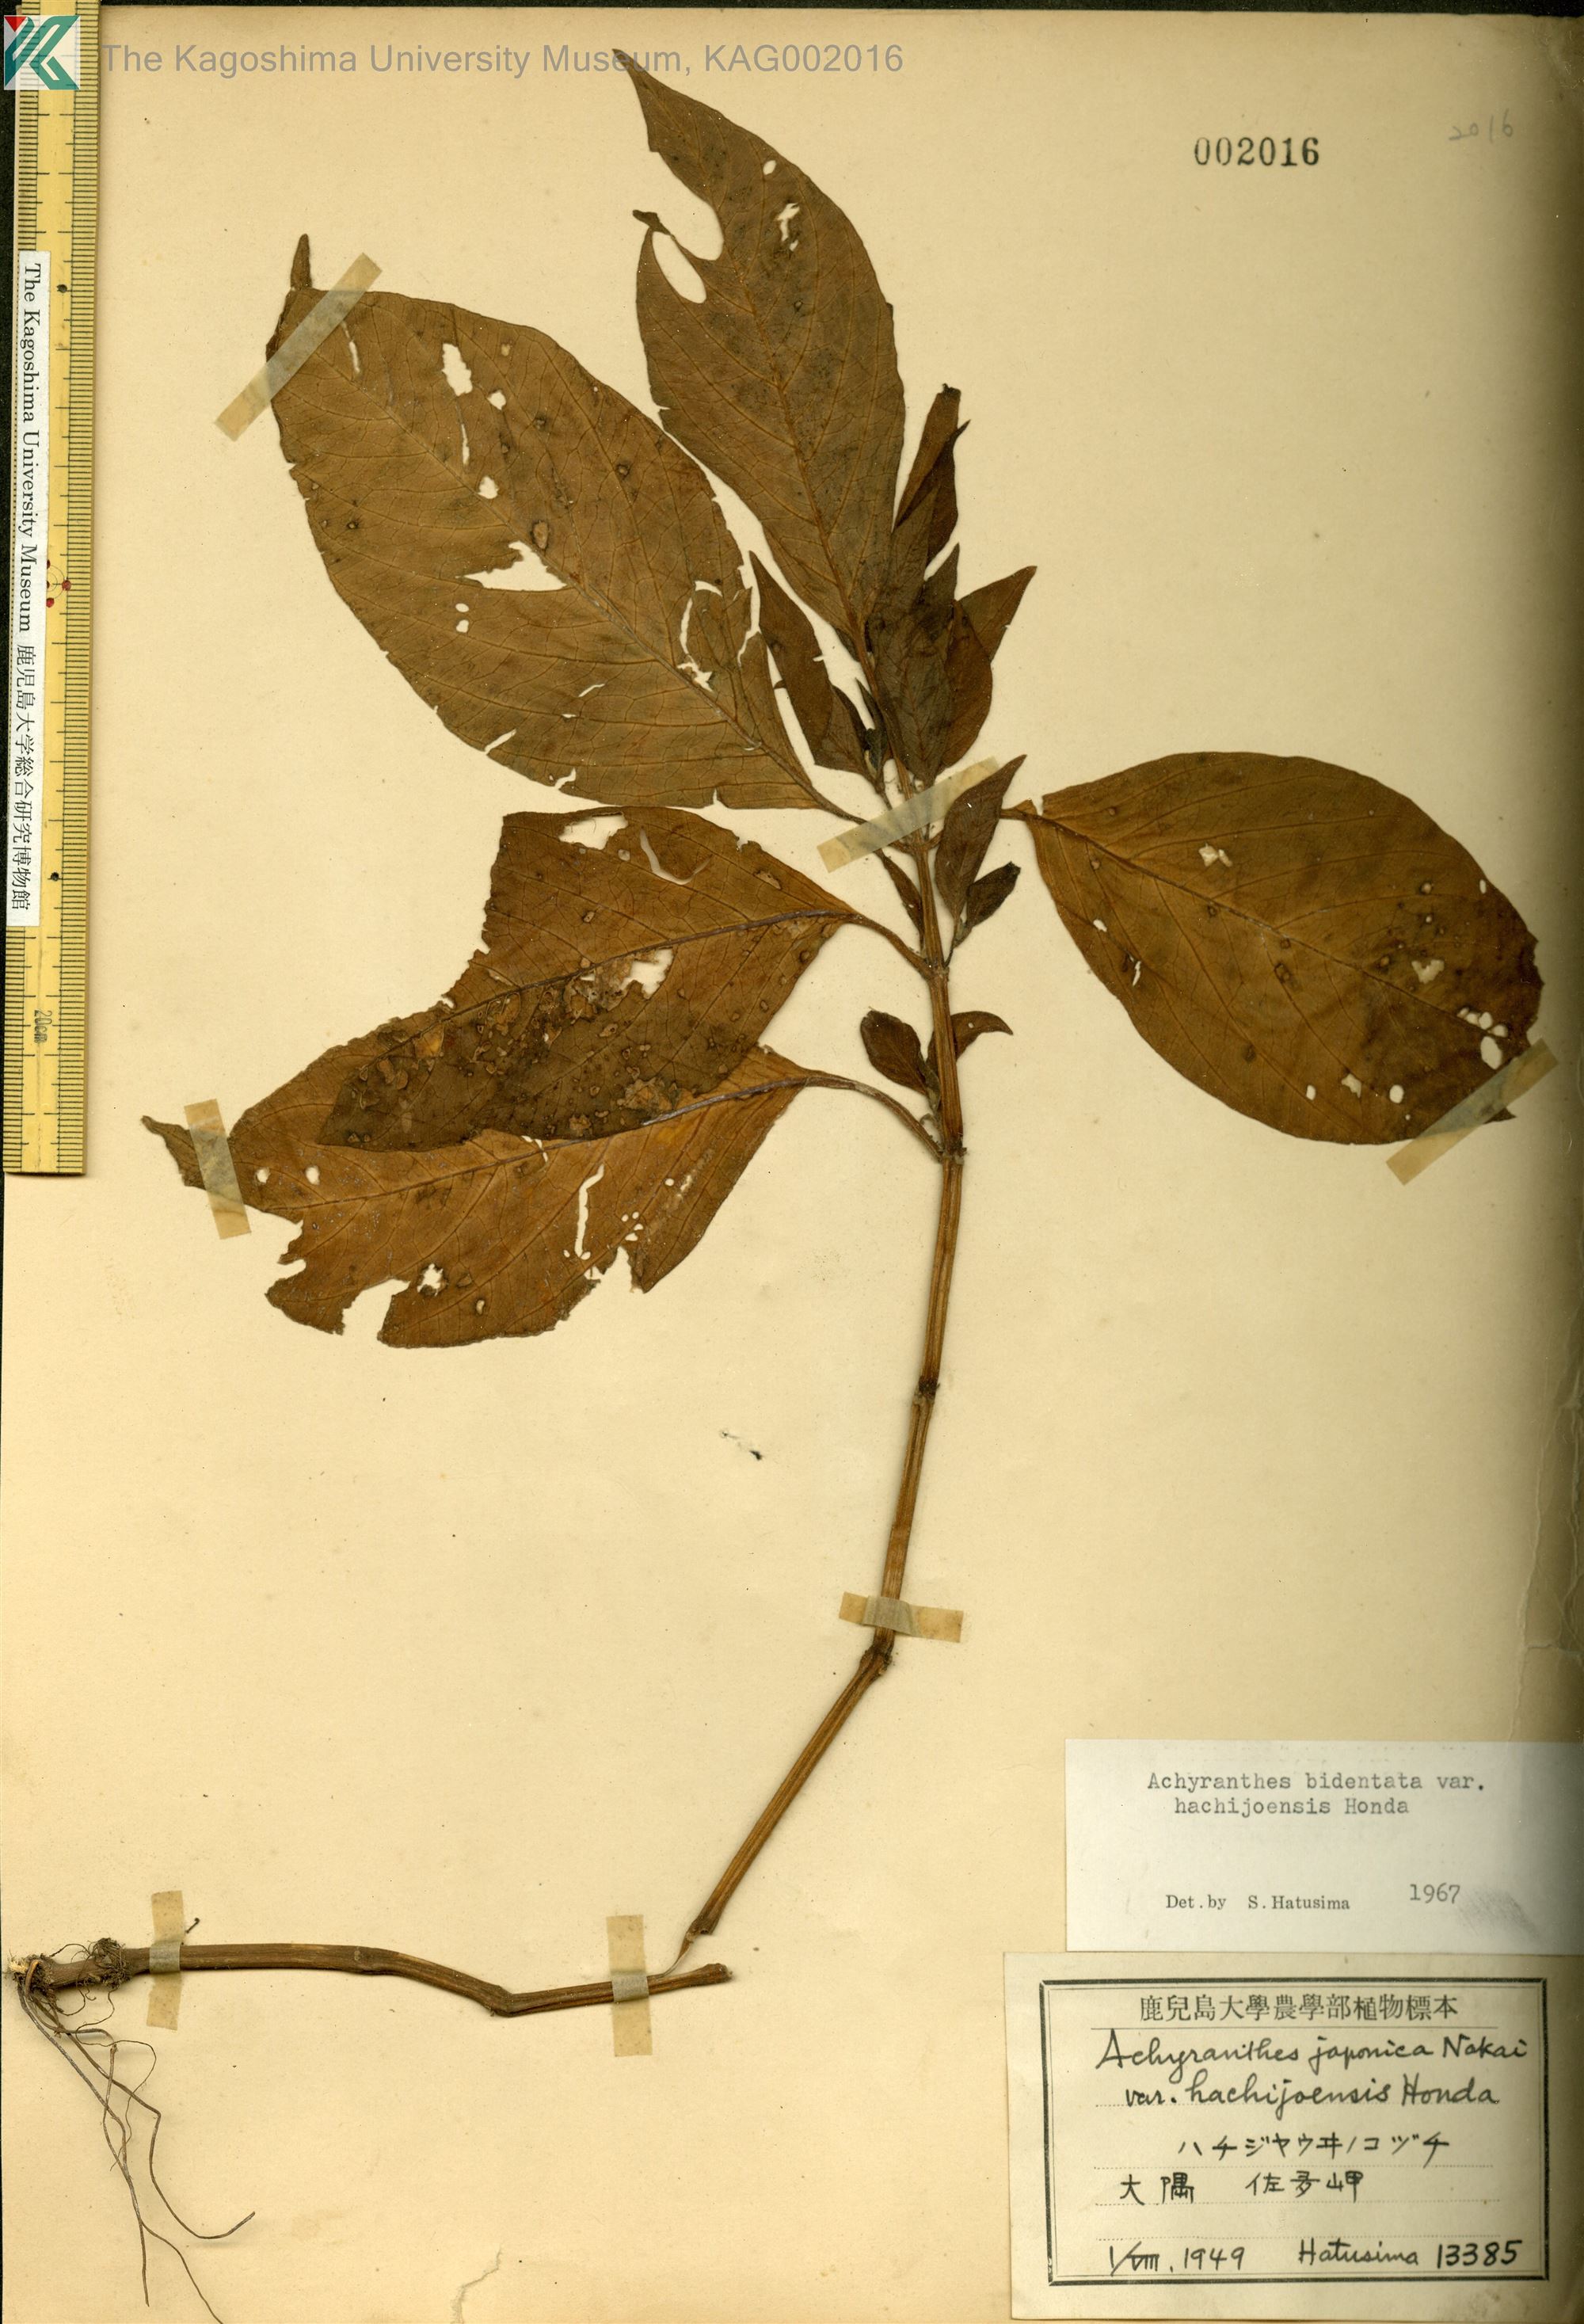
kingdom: Plantae
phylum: Tracheophyta
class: Magnoliopsida
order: Caryophyllales
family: Amaranthaceae
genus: Achyranthes
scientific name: Achyranthes bidentata
